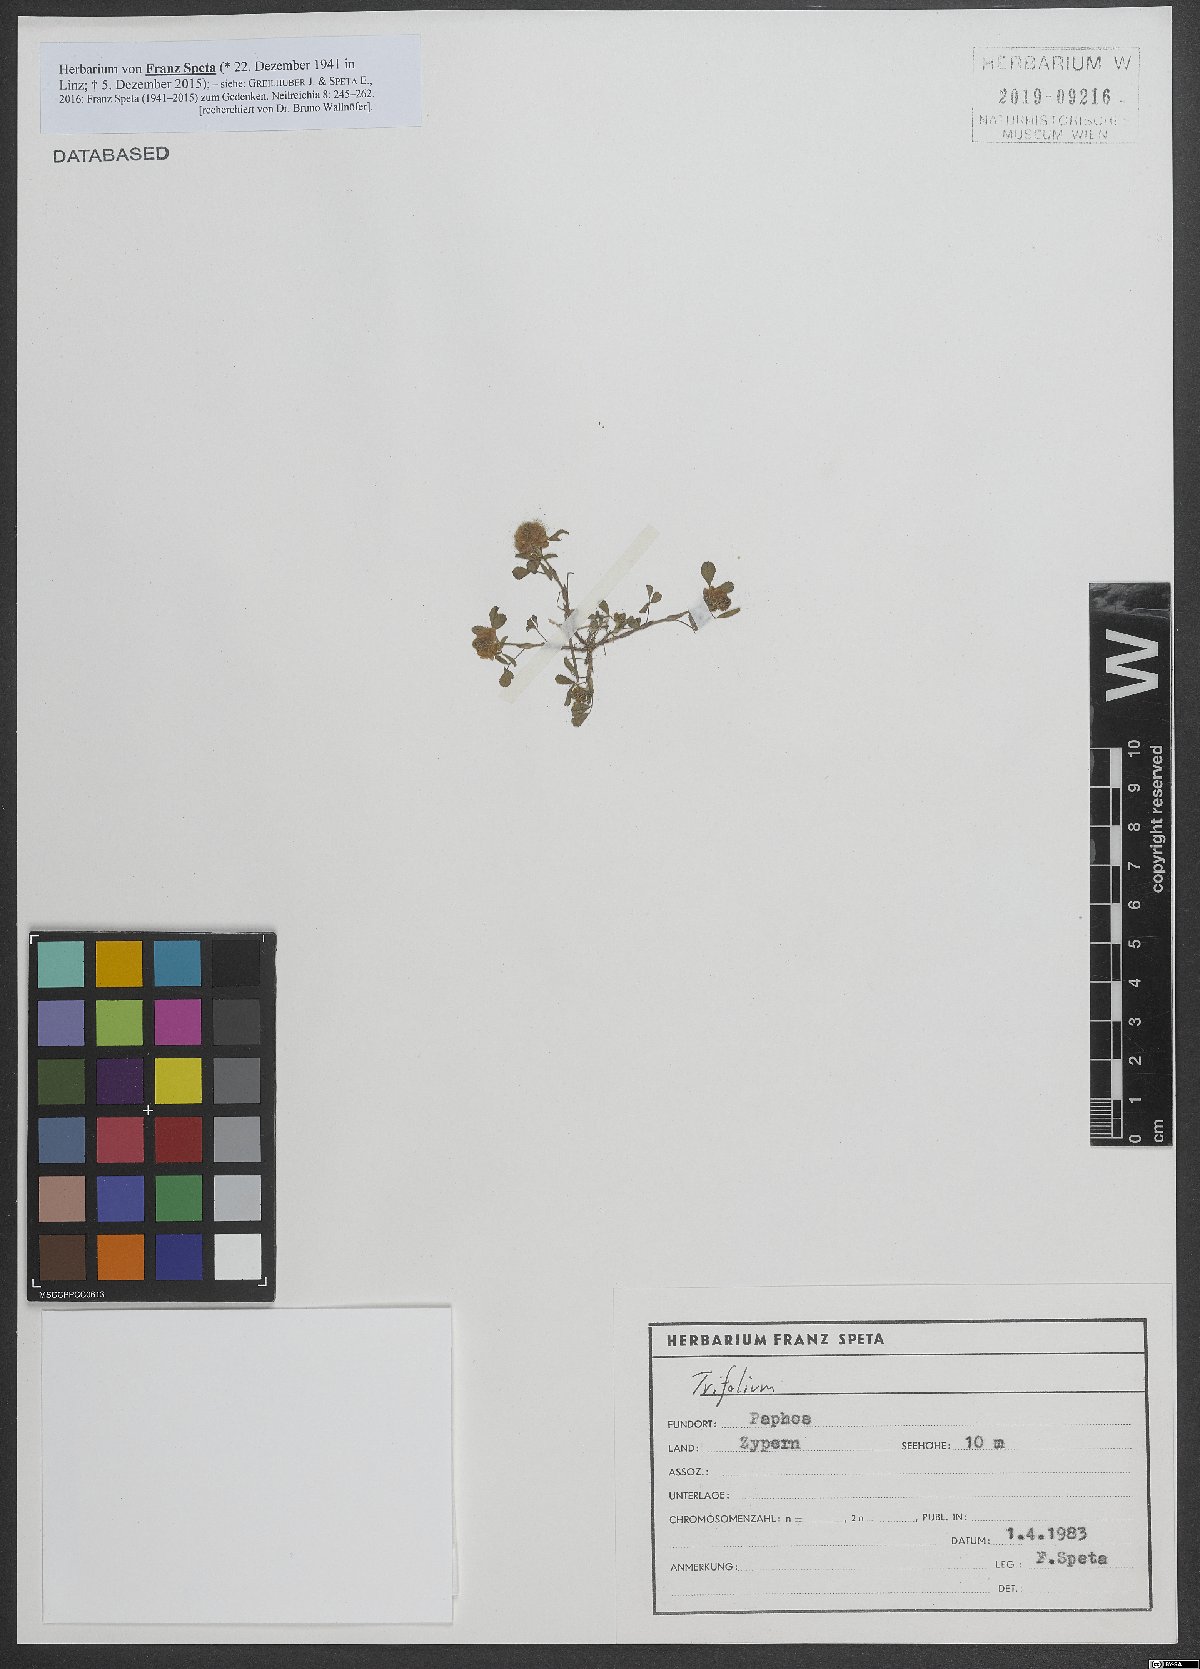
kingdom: Plantae
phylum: Tracheophyta
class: Magnoliopsida
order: Fabales
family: Fabaceae
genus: Trifolium
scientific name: Trifolium
